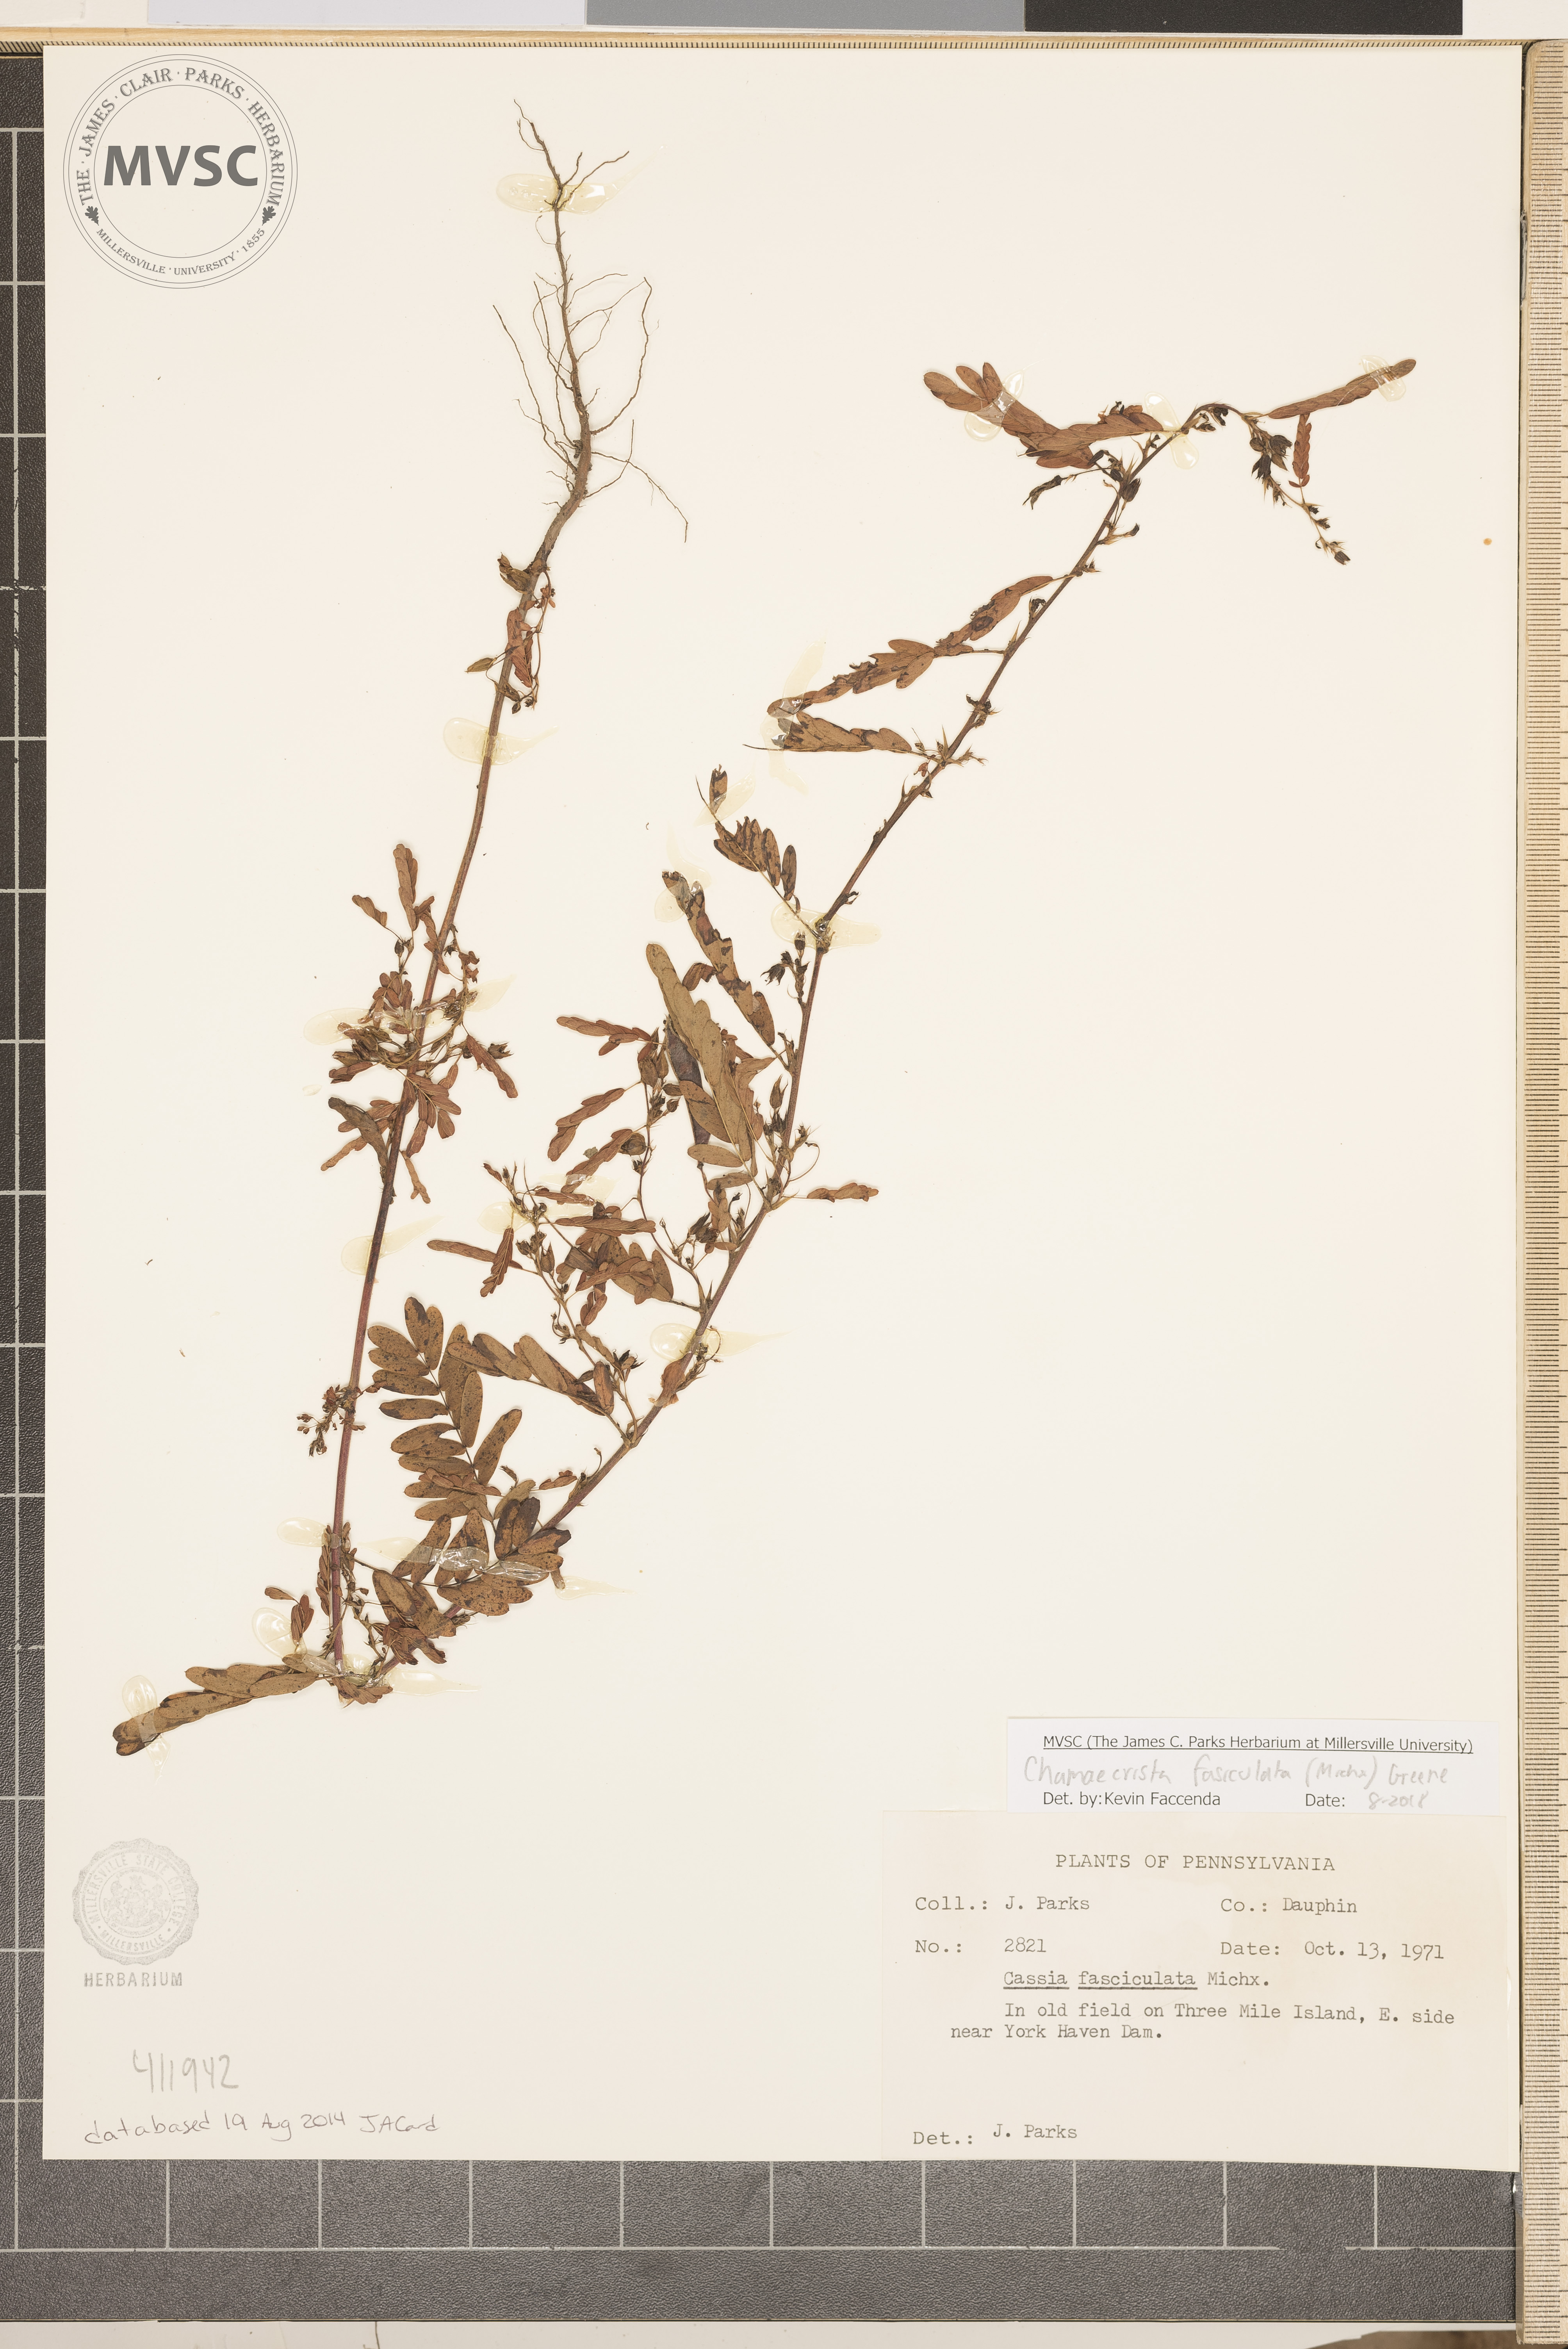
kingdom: Plantae
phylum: Tracheophyta
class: Magnoliopsida
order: Fabales
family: Fabaceae
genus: Chamaecrista
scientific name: Chamaecrista fasciculata
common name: Golden cassia
